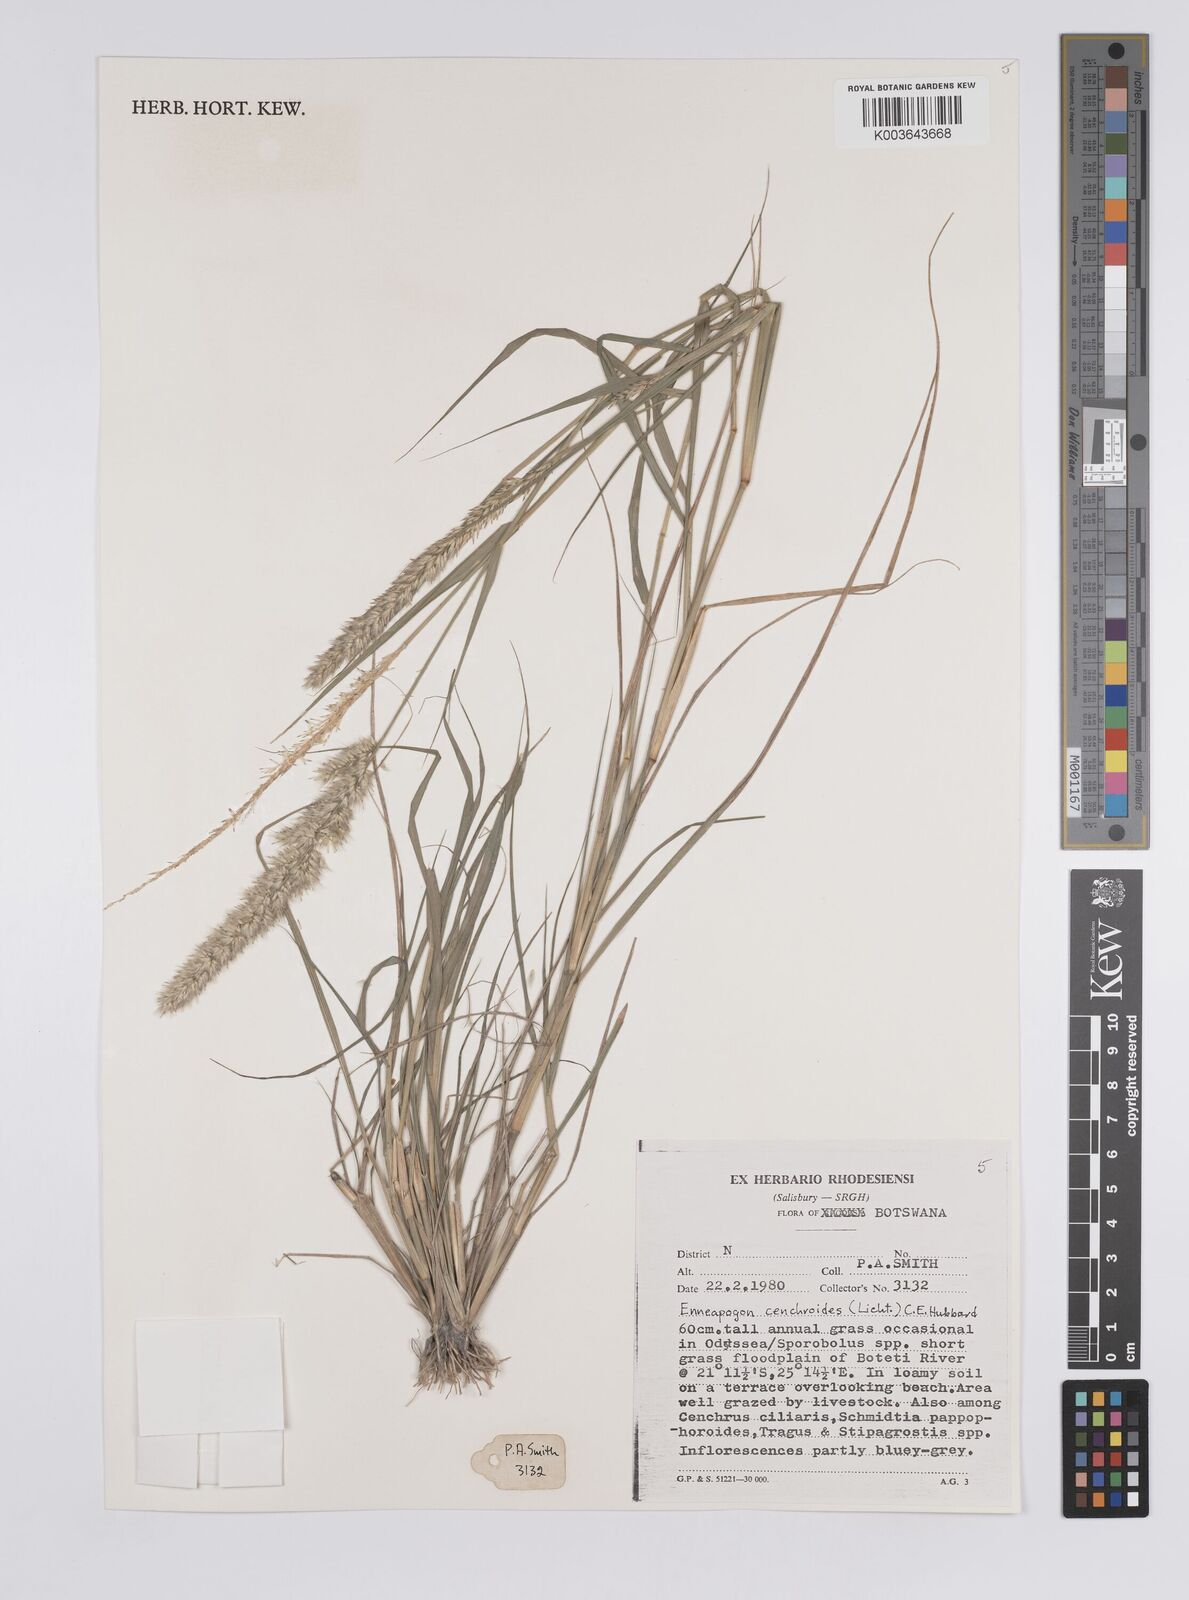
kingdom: Plantae
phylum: Tracheophyta
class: Liliopsida
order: Poales
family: Poaceae
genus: Enneapogon
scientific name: Enneapogon cenchroides
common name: Soft feather pappusgrass
